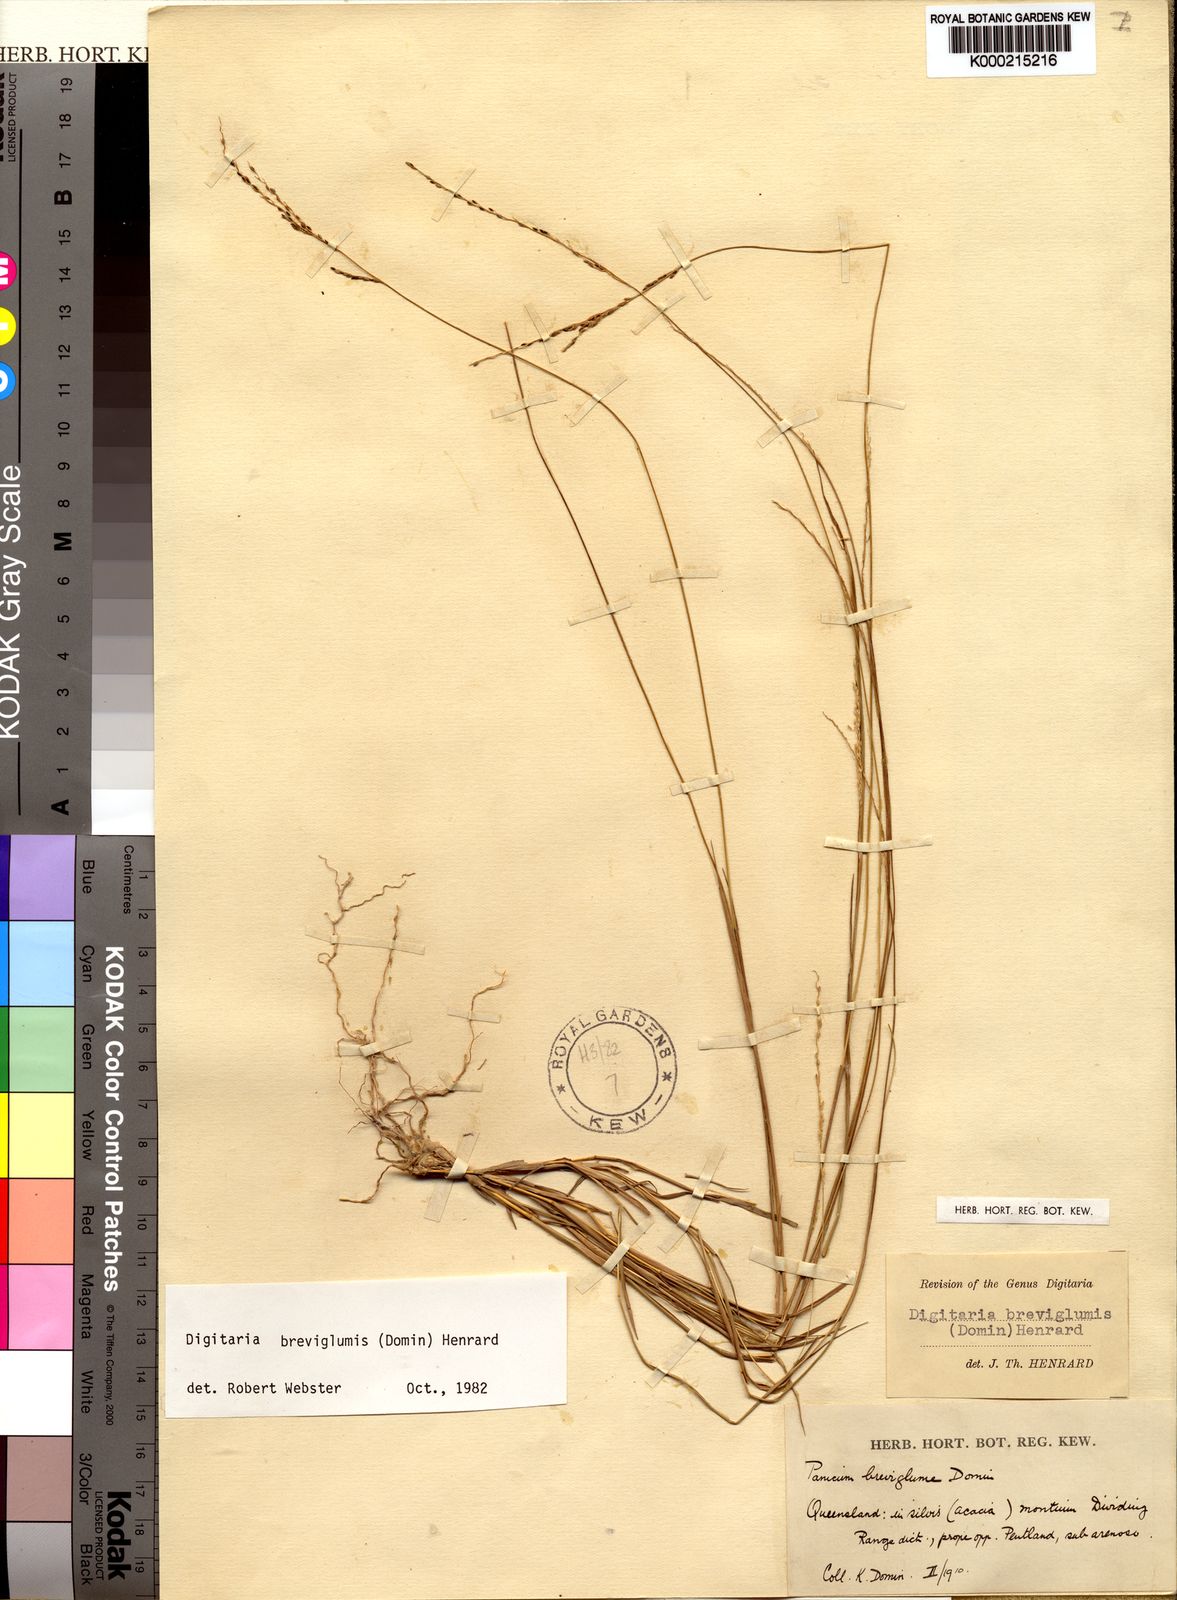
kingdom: Plantae
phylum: Tracheophyta
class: Liliopsida
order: Poales
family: Poaceae
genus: Digitaria
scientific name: Digitaria breviglumis
